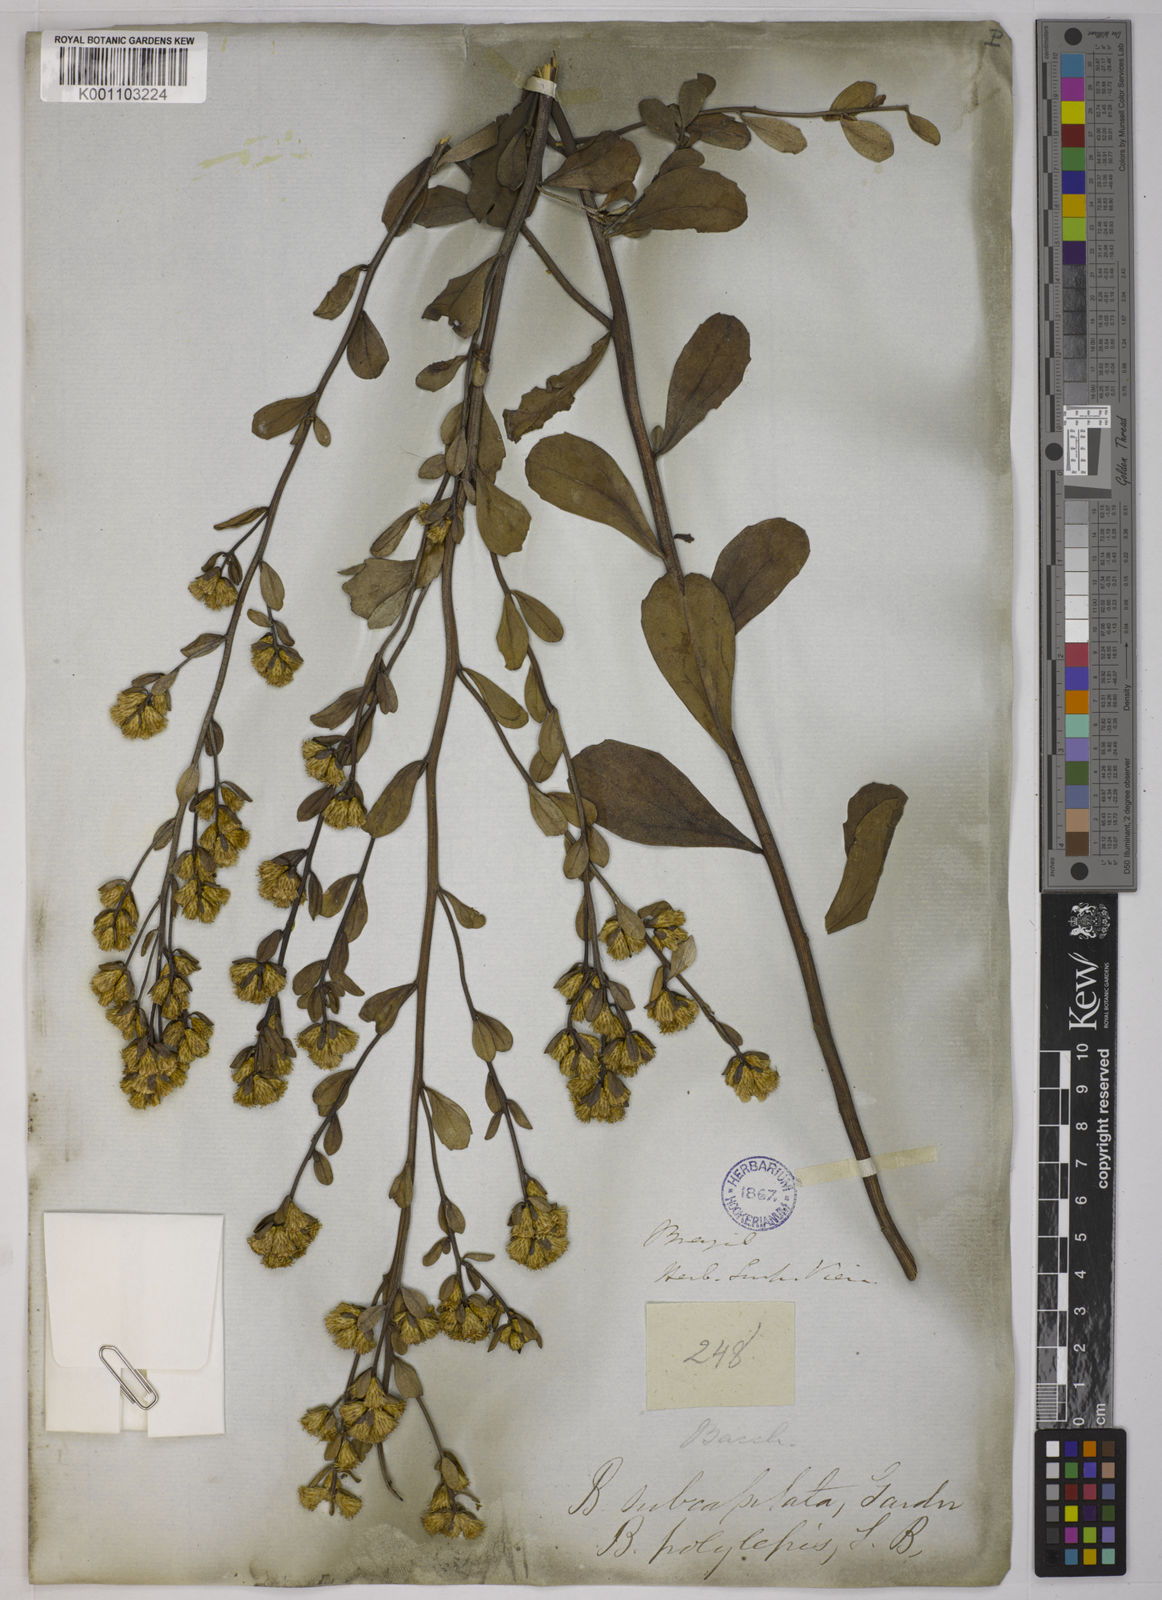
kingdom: Plantae
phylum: Tracheophyta
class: Magnoliopsida
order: Asterales
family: Asteraceae
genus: Baccharis
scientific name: Baccharis subdentata
